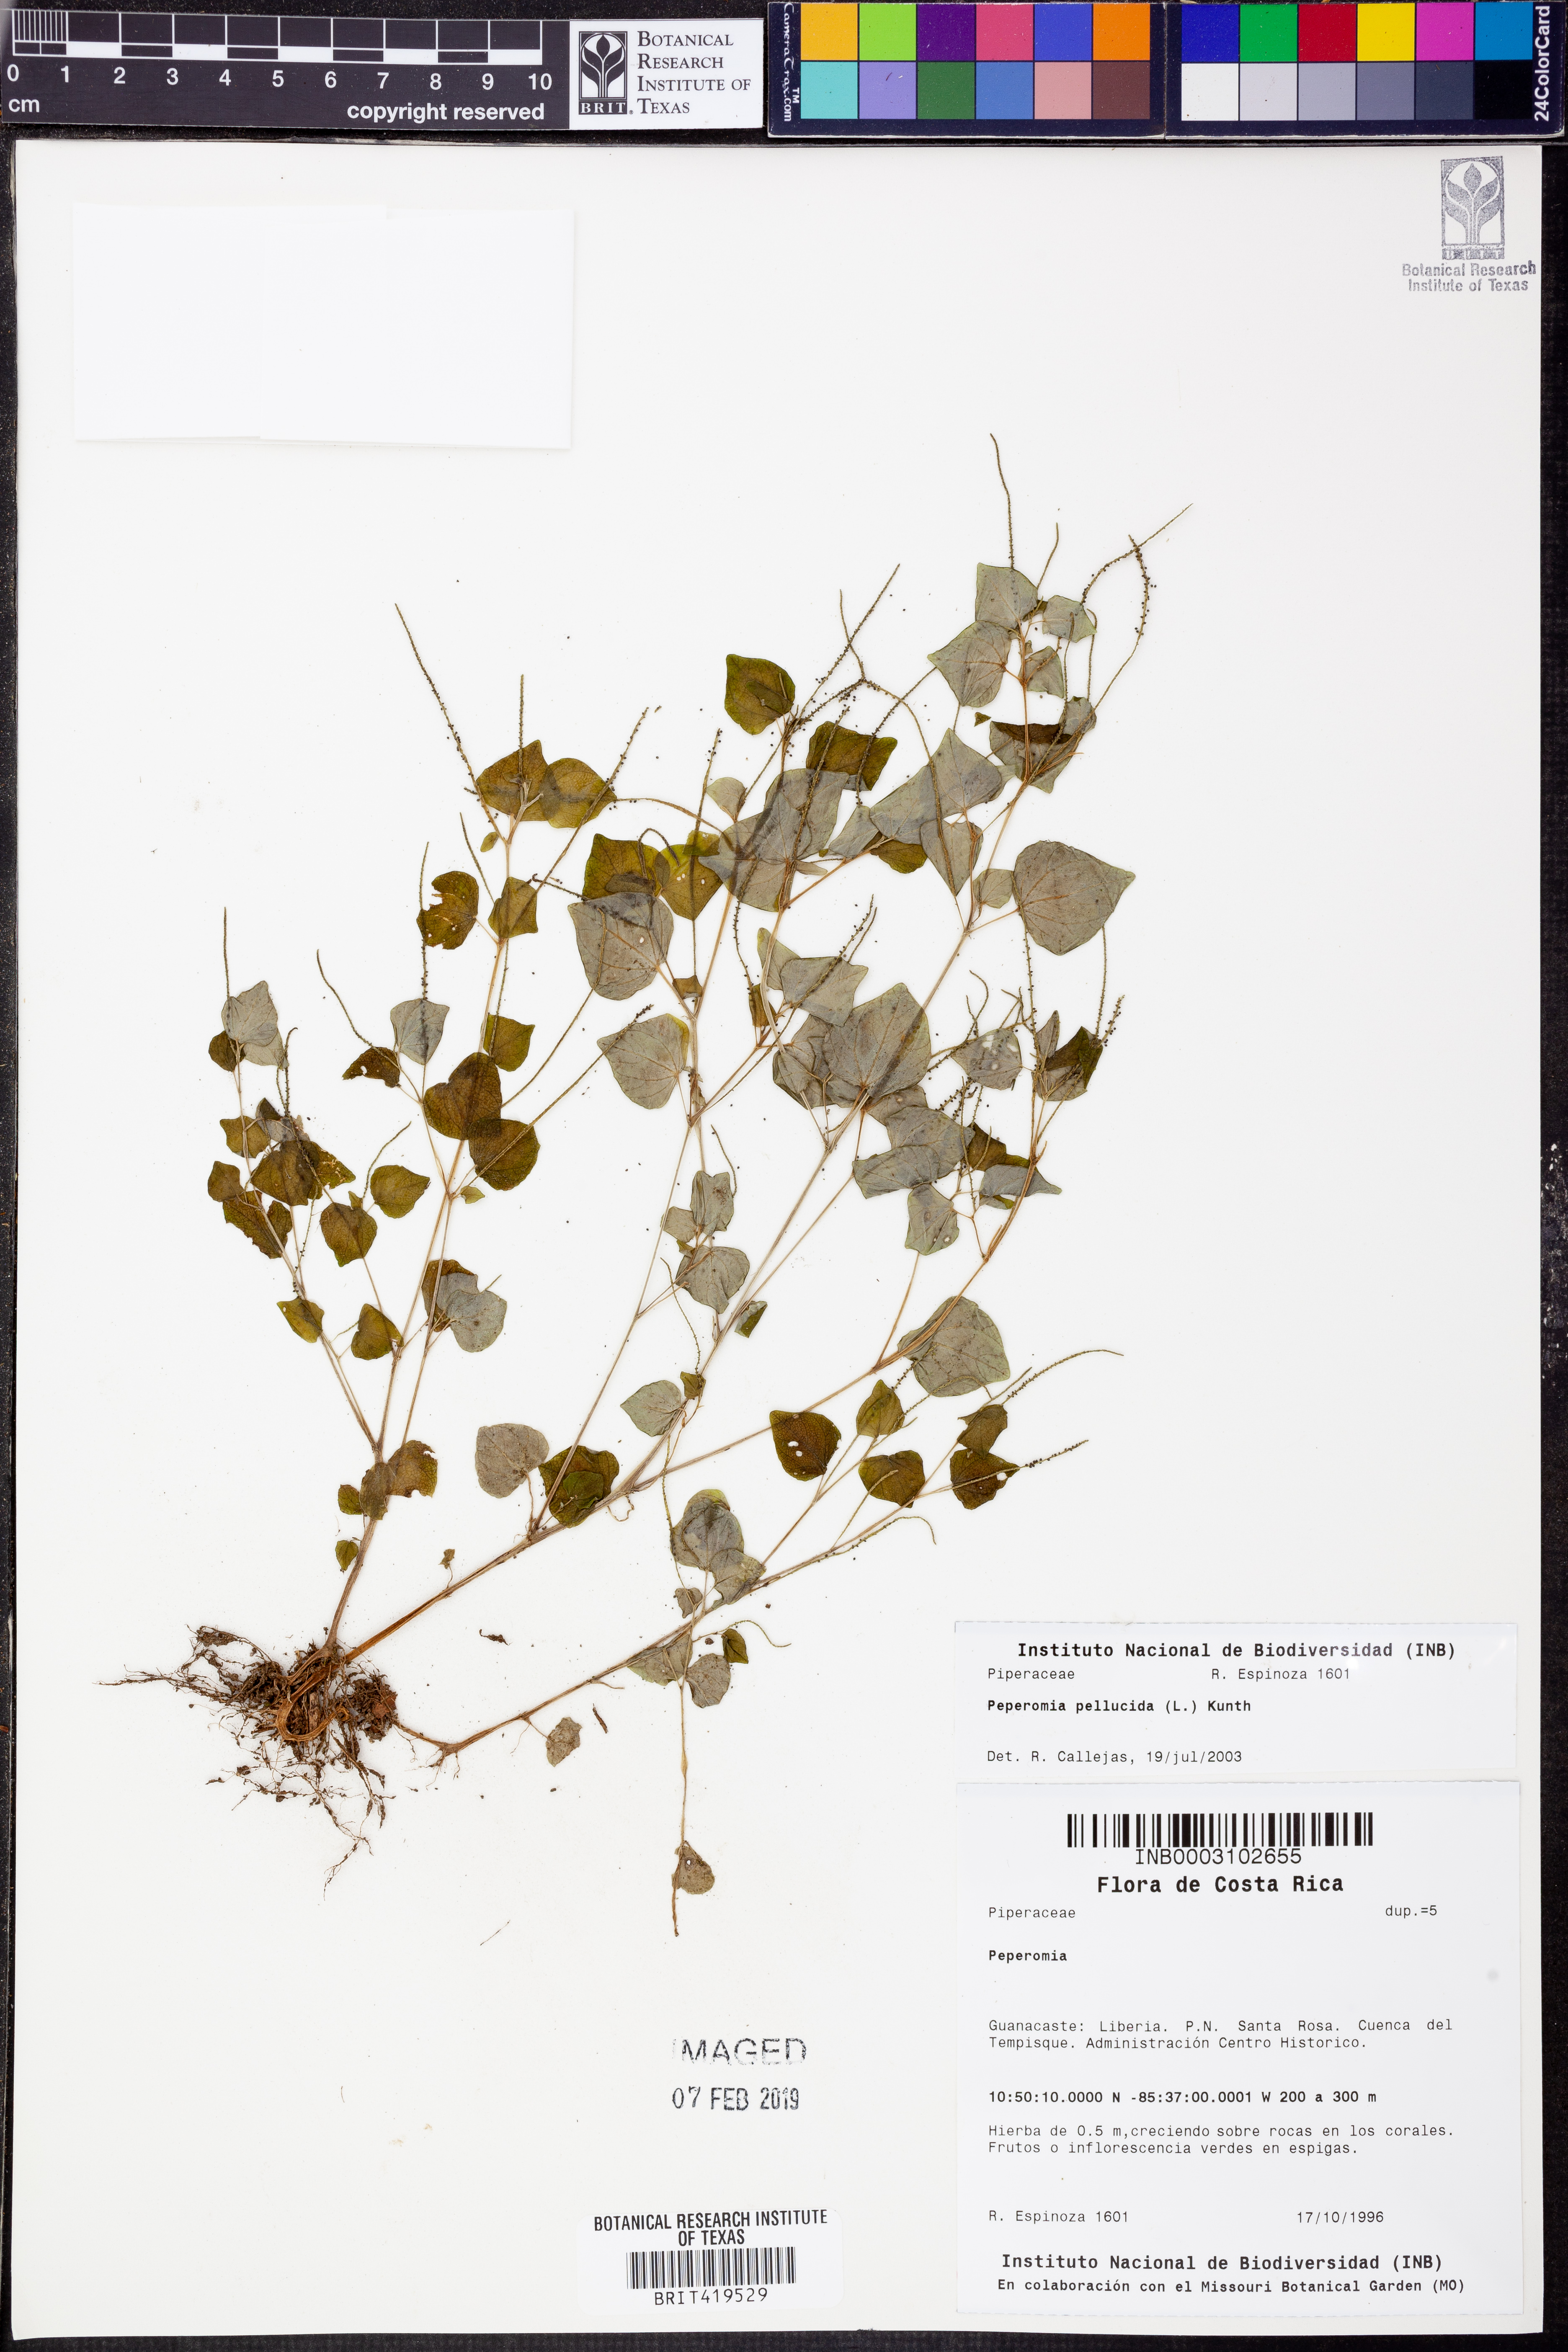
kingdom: Plantae
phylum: Tracheophyta
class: Magnoliopsida
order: Piperales
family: Piperaceae
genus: Peperomia
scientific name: Peperomia pellucida
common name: Man to man
